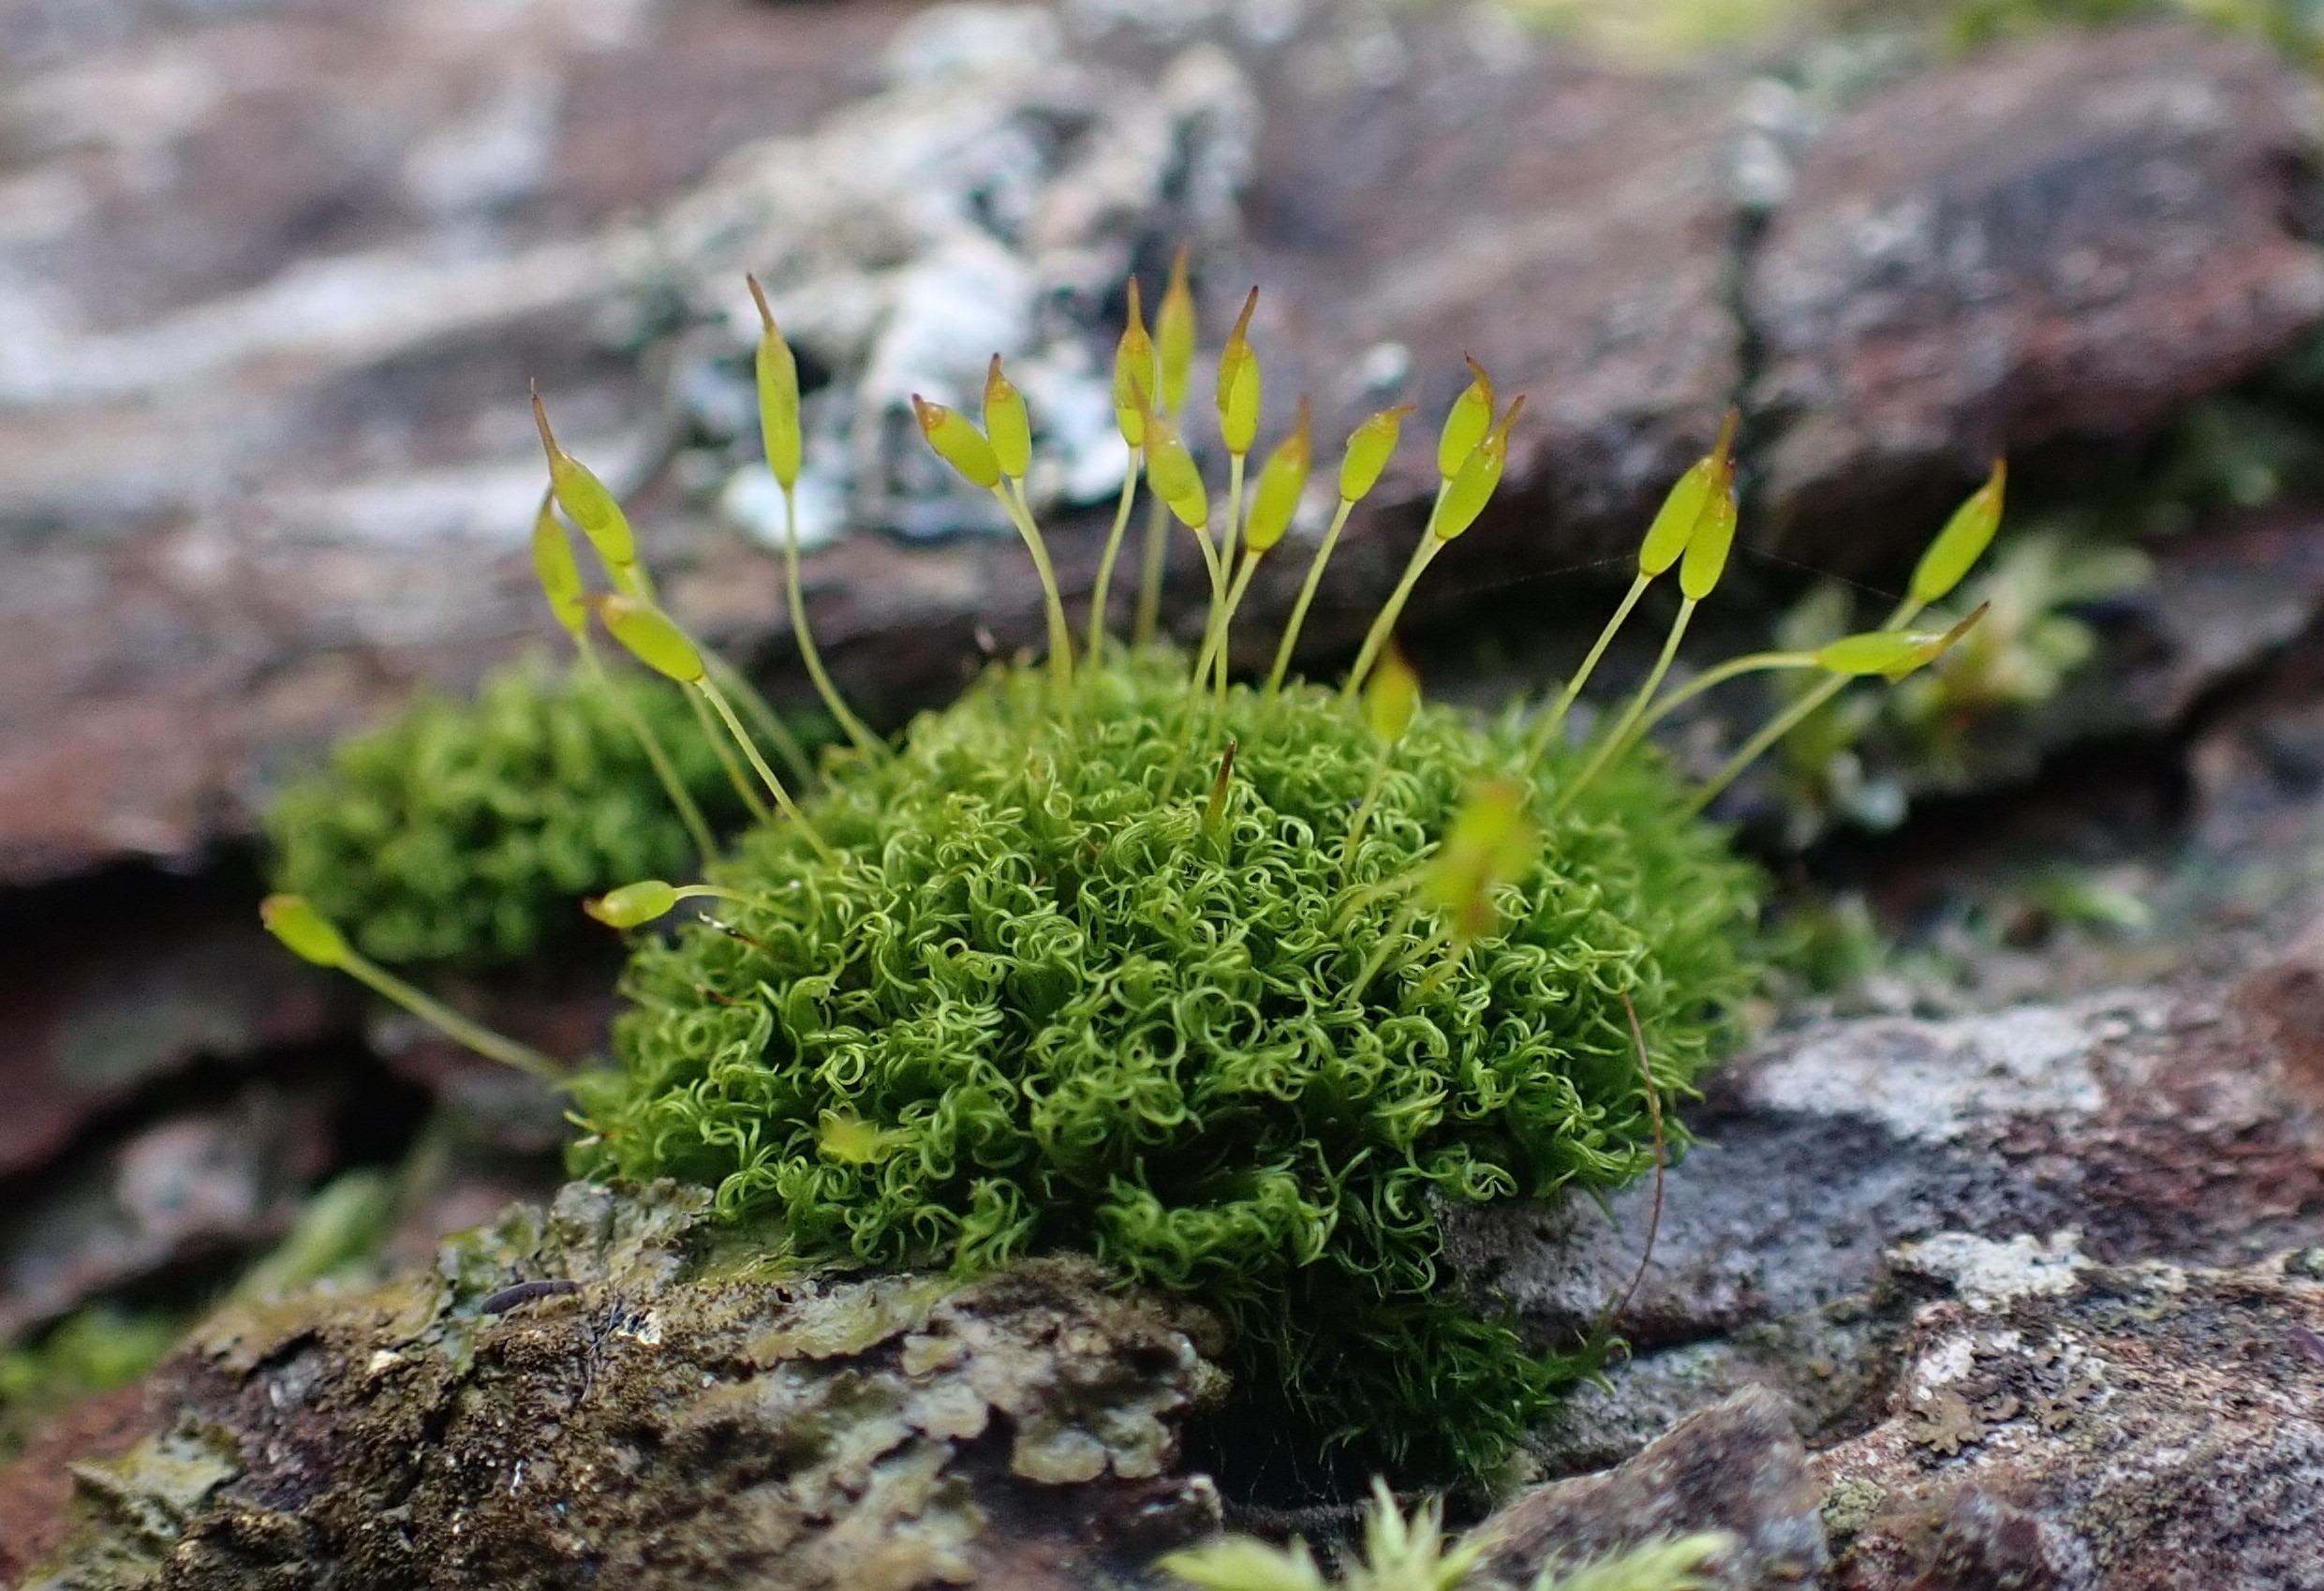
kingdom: Plantae
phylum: Bryophyta
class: Bryopsida
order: Dicranales
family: Rhabdoweisiaceae
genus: Dicranoweisia
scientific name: Dicranoweisia cirrata
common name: Almindelig krøltuemos
